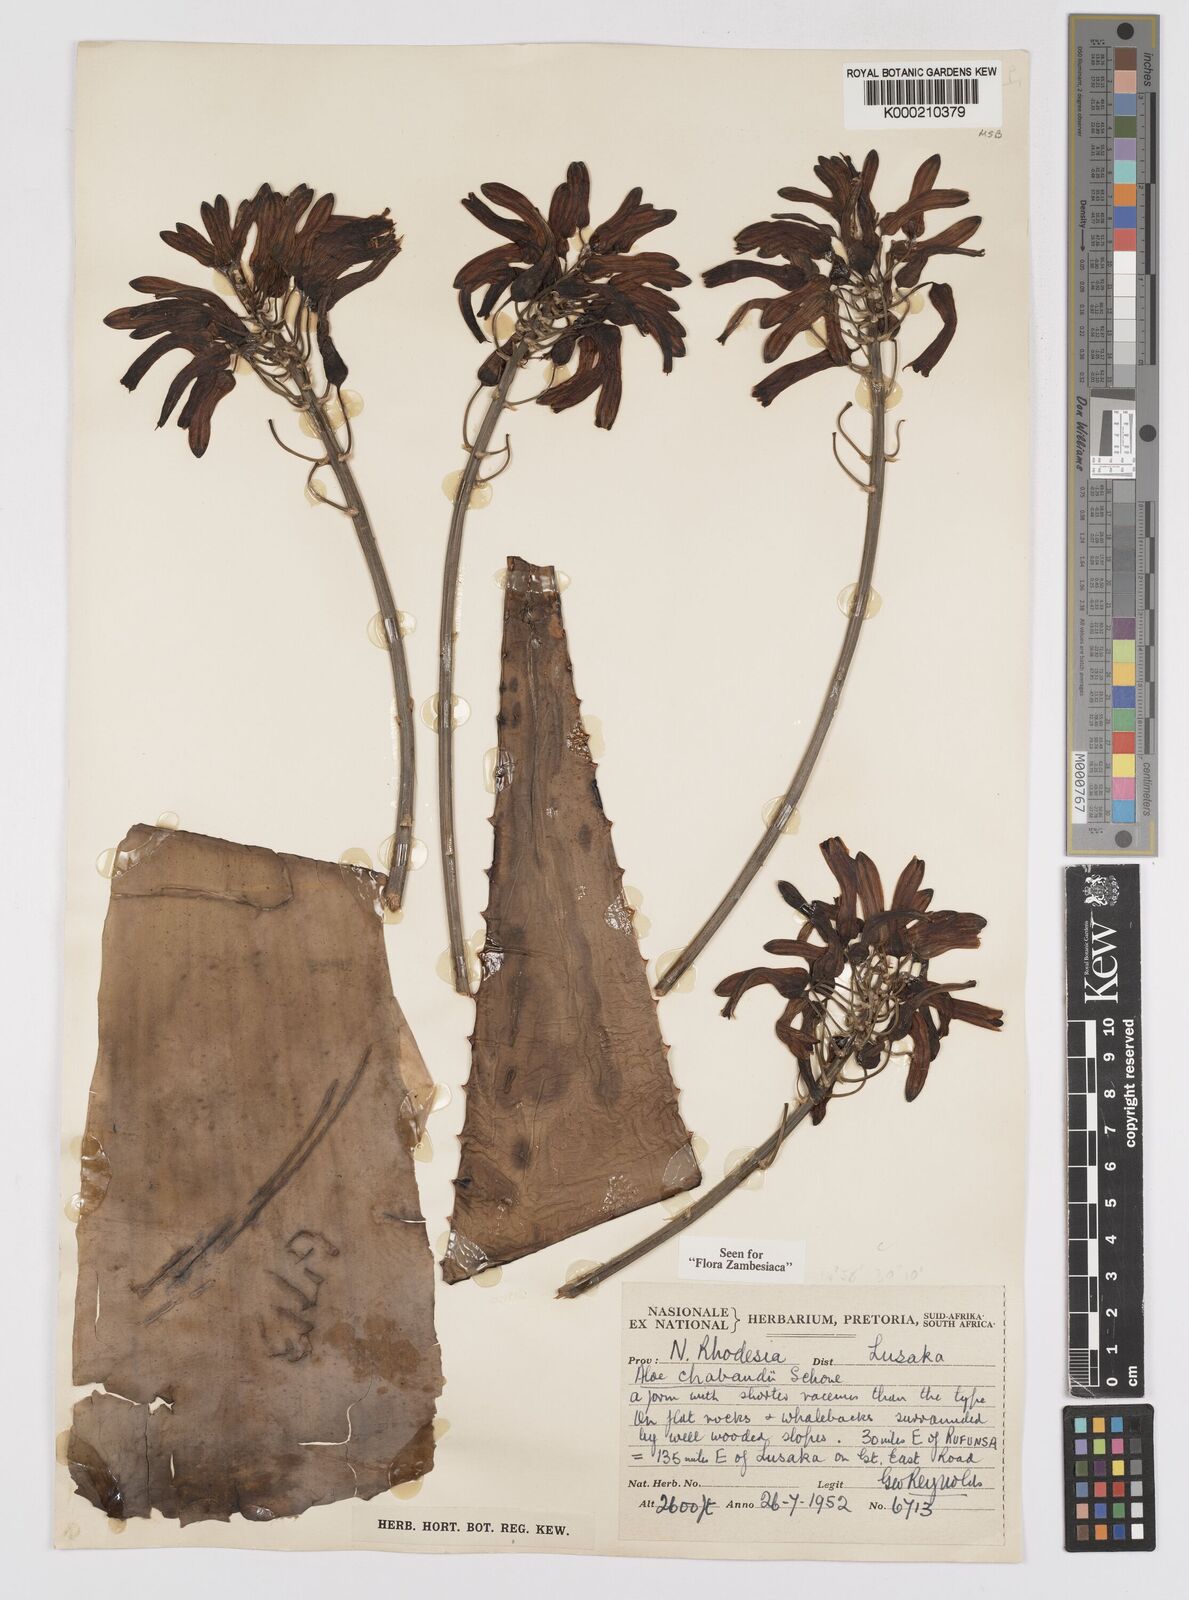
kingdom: Plantae
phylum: Tracheophyta
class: Liliopsida
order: Asparagales
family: Asphodelaceae
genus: Aloe
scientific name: Aloe chabaudii
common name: Chabaud's aloe
